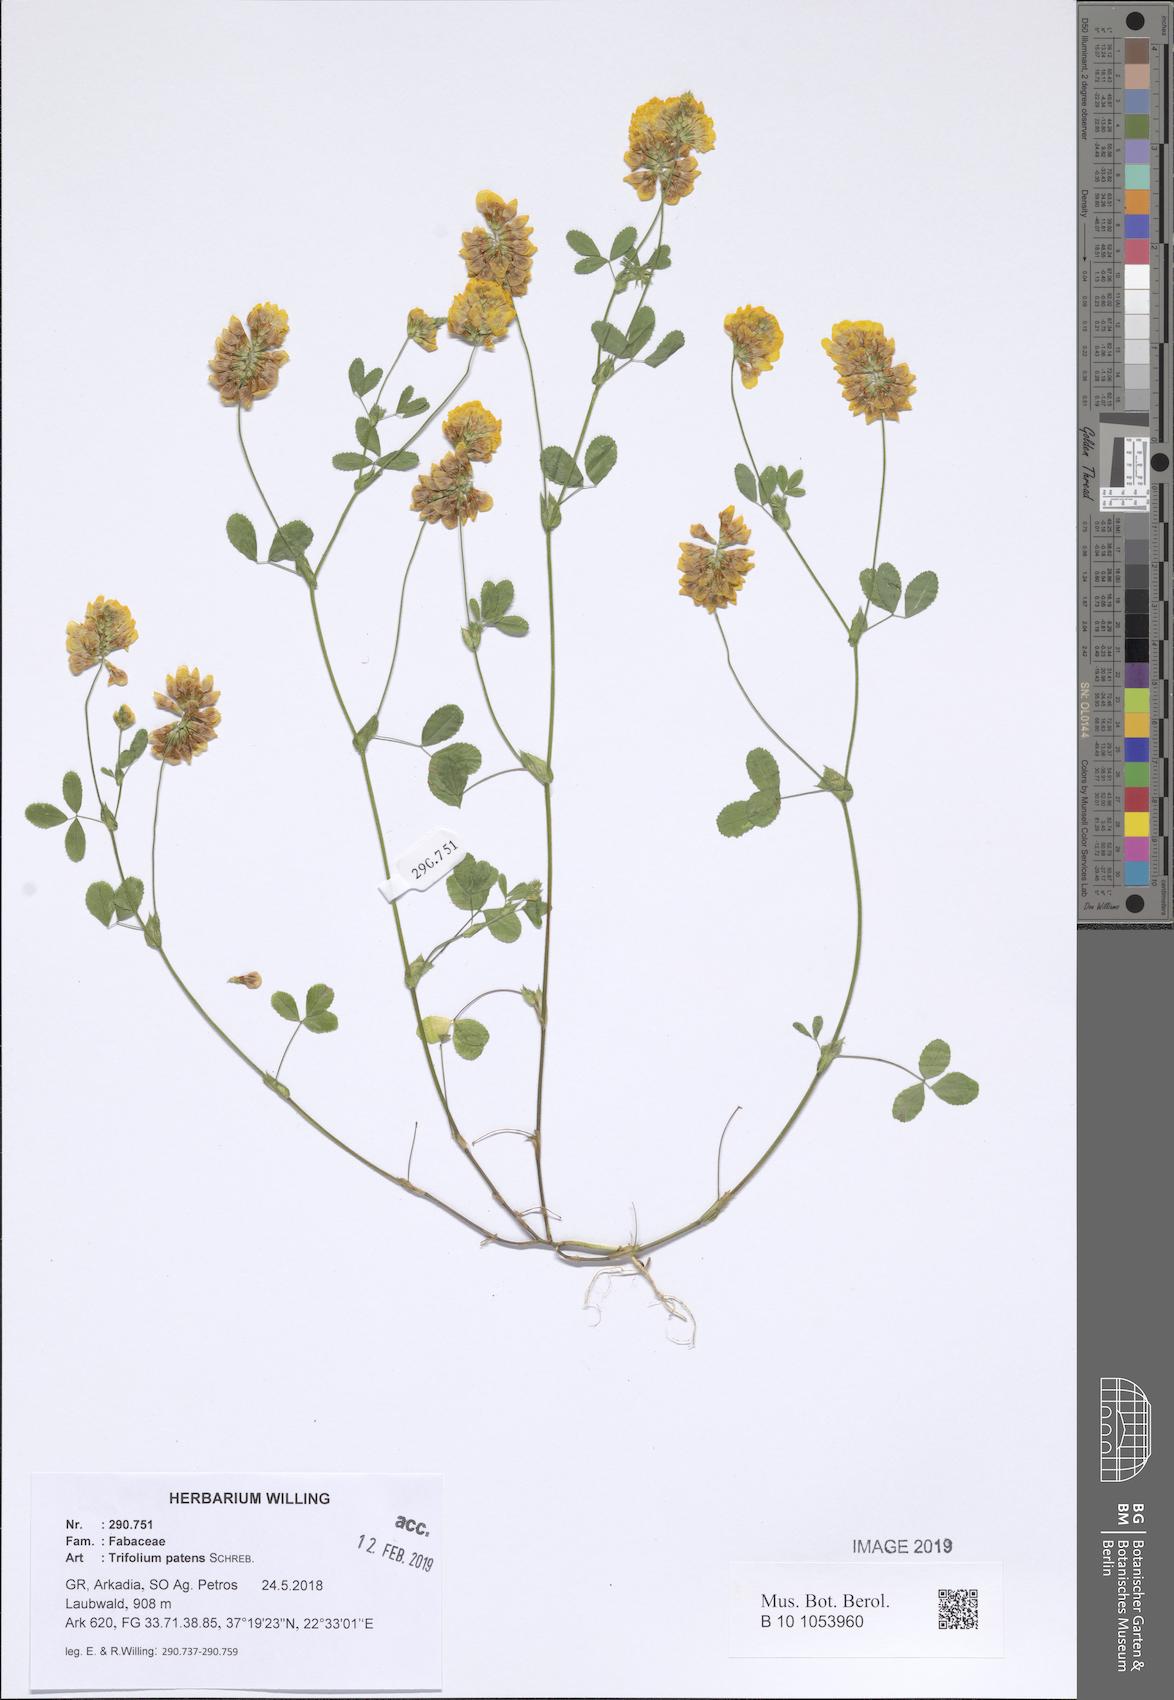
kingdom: Plantae
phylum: Tracheophyta
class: Magnoliopsida
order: Fabales
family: Fabaceae
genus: Trifolium
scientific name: Trifolium patens
